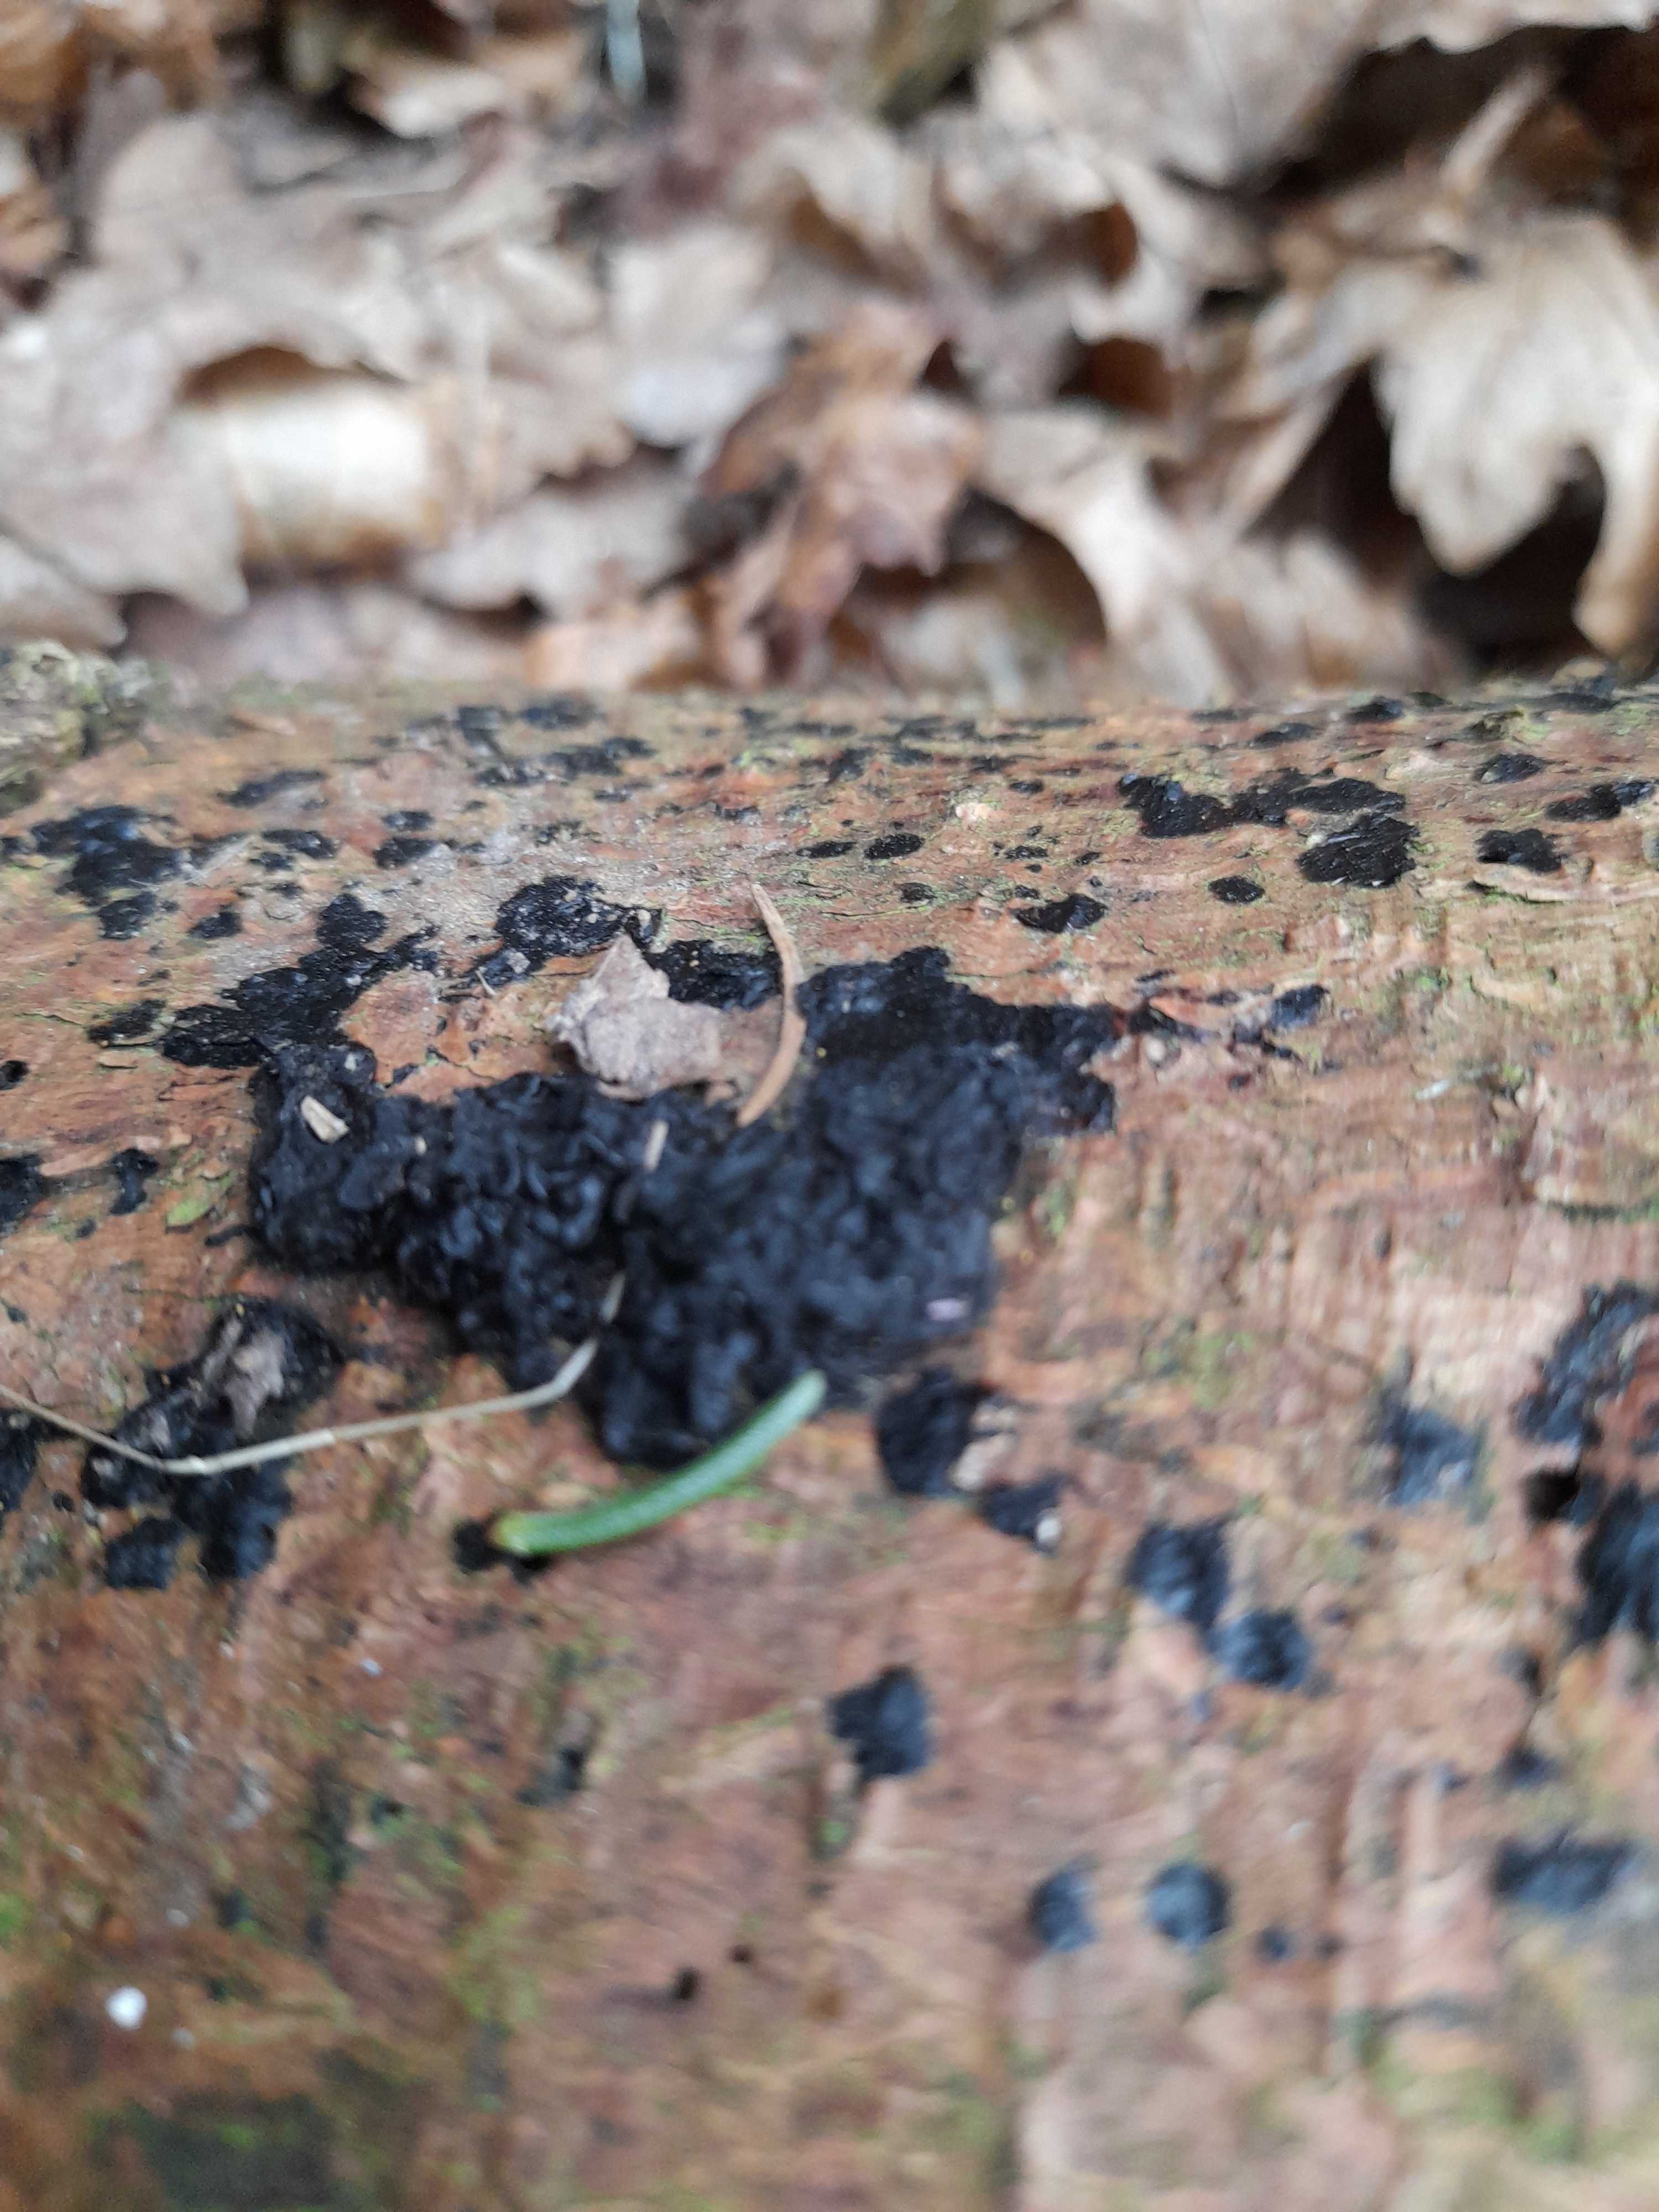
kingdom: Fungi
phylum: Basidiomycota
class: Agaricomycetes
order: Auriculariales
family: Auriculariaceae
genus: Exidia
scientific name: Exidia pithya
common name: gran-bævretop
